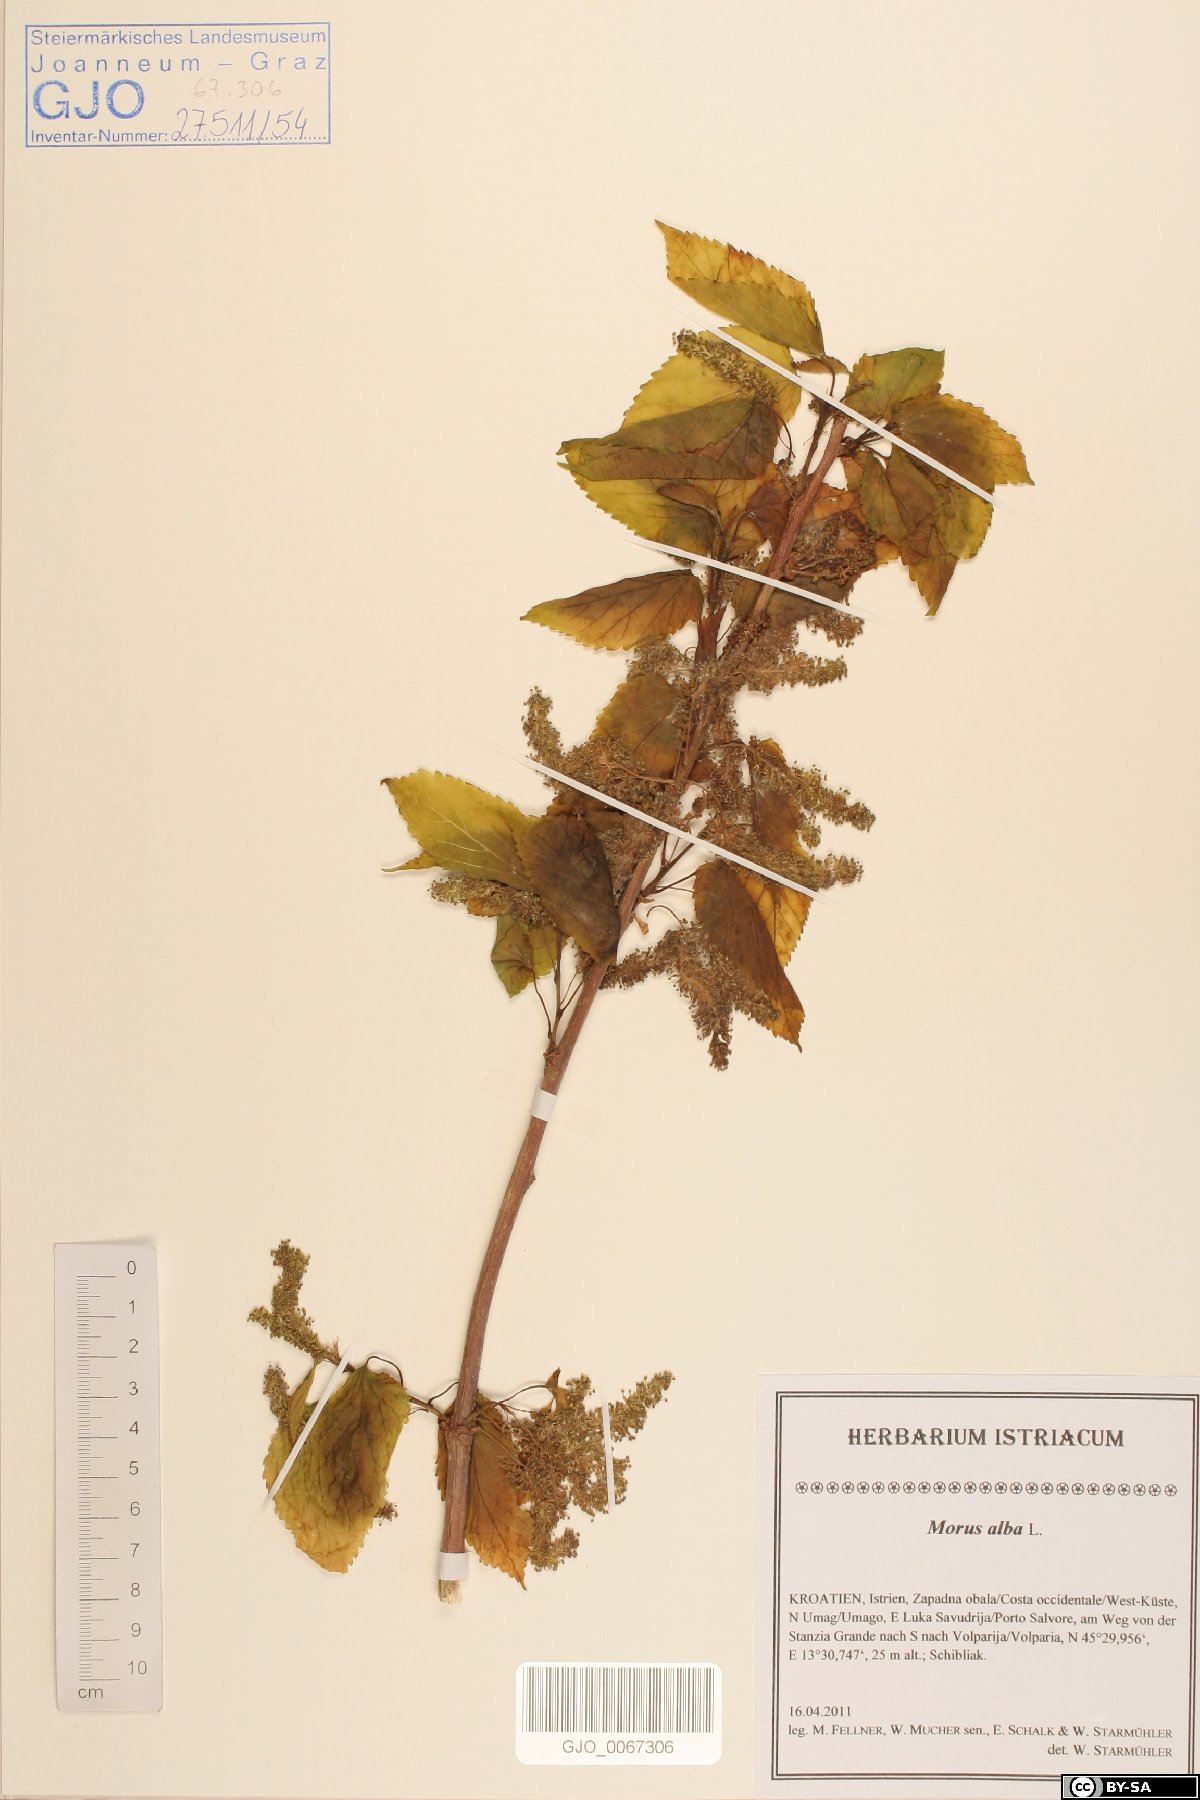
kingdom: Plantae
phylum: Tracheophyta
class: Magnoliopsida
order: Rosales
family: Moraceae
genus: Morus
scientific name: Morus alba
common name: White mulberry
